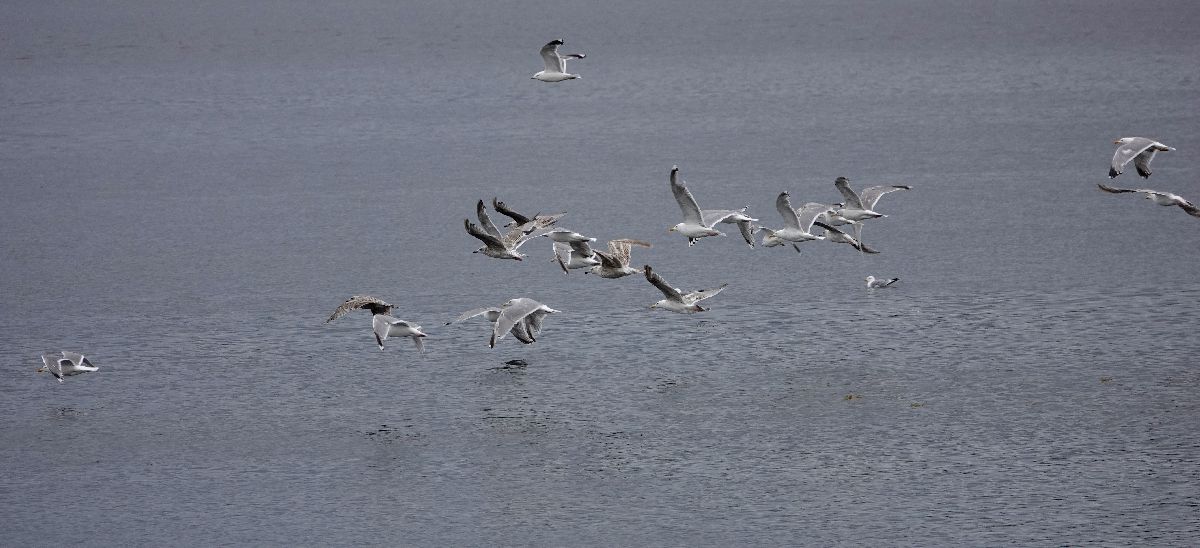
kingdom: Animalia
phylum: Chordata
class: Aves
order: Charadriiformes
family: Laridae
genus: Larus
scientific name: Larus argentatus
